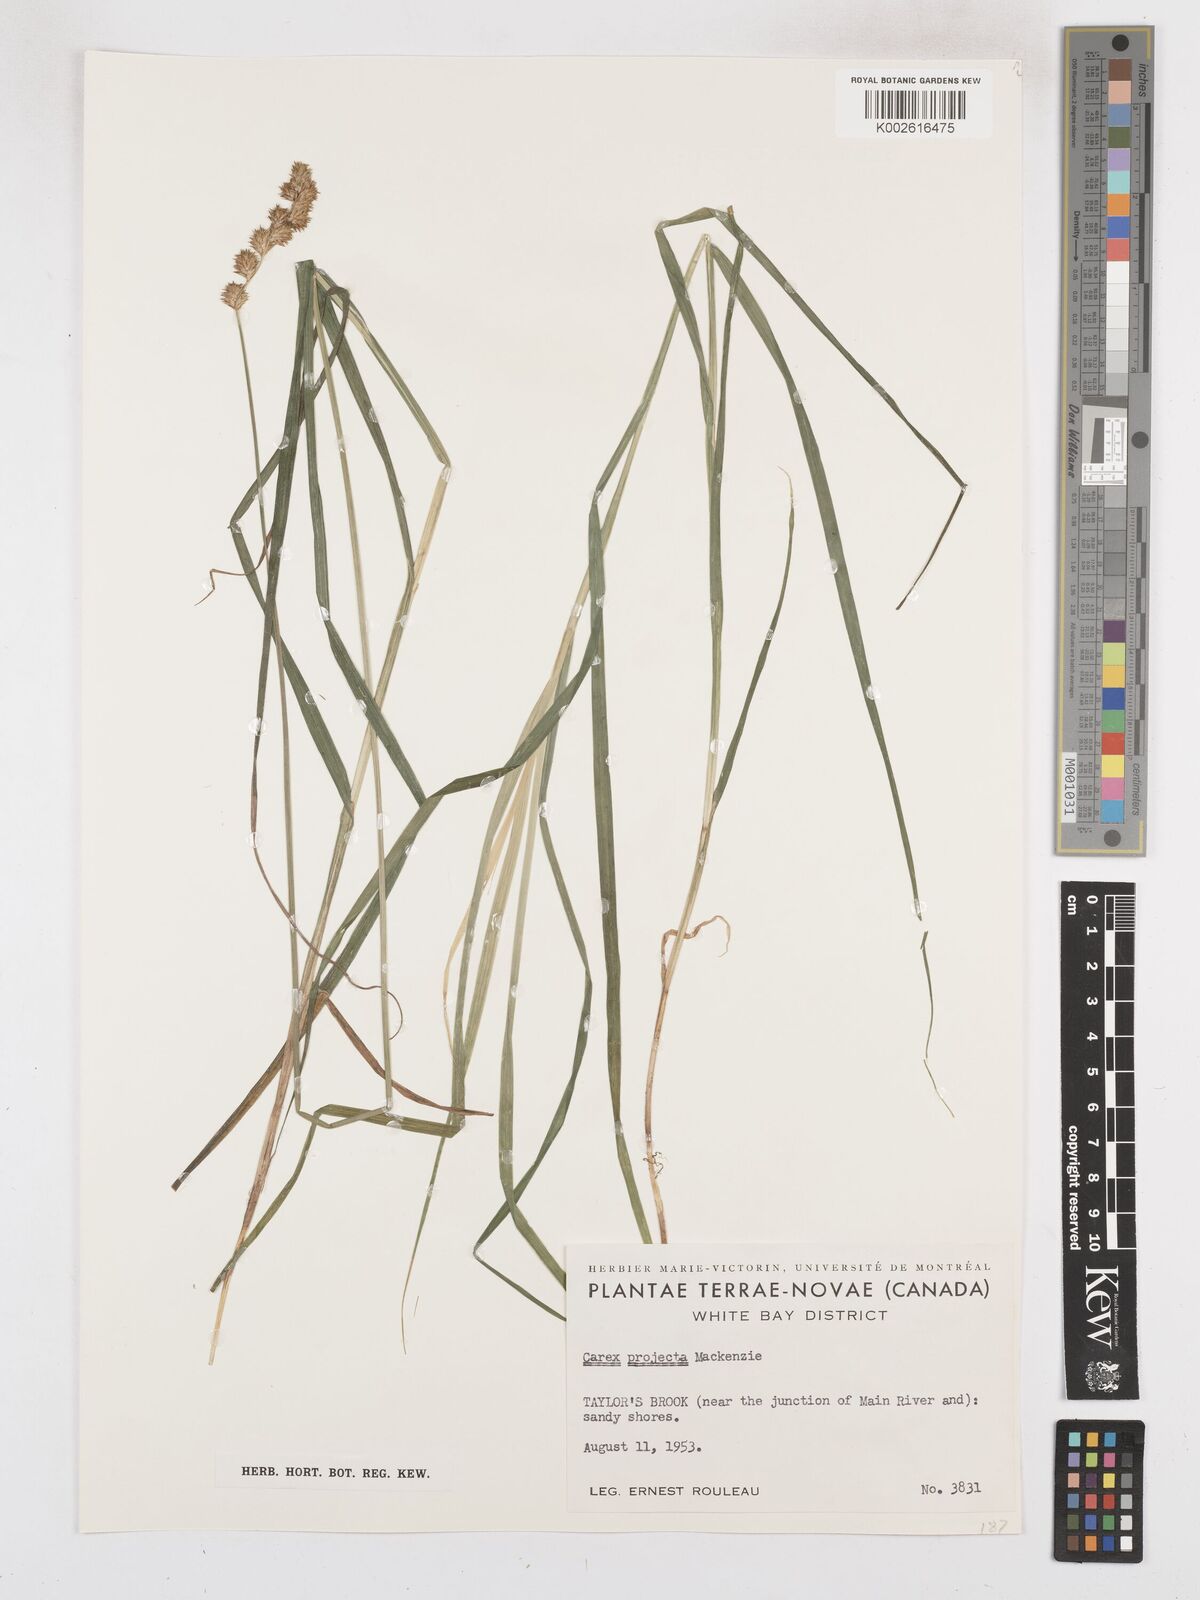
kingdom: Plantae
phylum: Tracheophyta
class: Liliopsida
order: Poales
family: Cyperaceae
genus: Carex
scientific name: Carex projecta
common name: Loose-headed oval sedge
